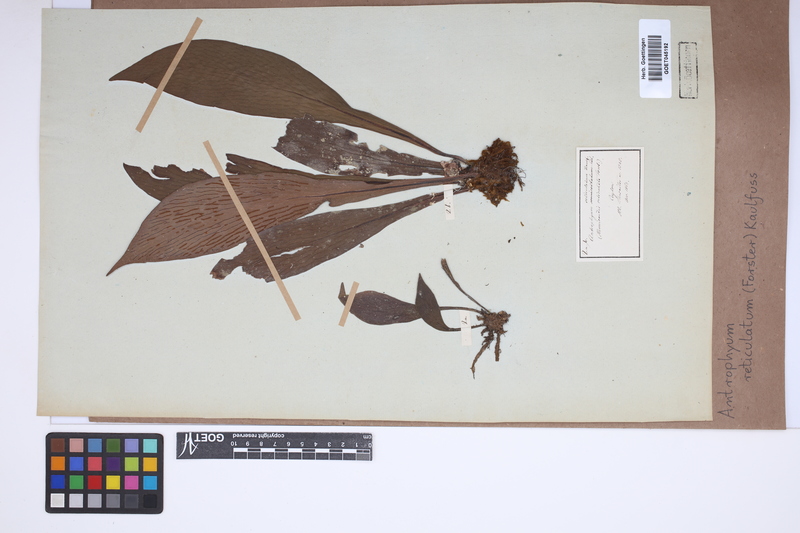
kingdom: Plantae
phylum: Tracheophyta
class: Polypodiopsida
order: Polypodiales
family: Pteridaceae
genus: Antrophyum
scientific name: Antrophyum reticulatum
